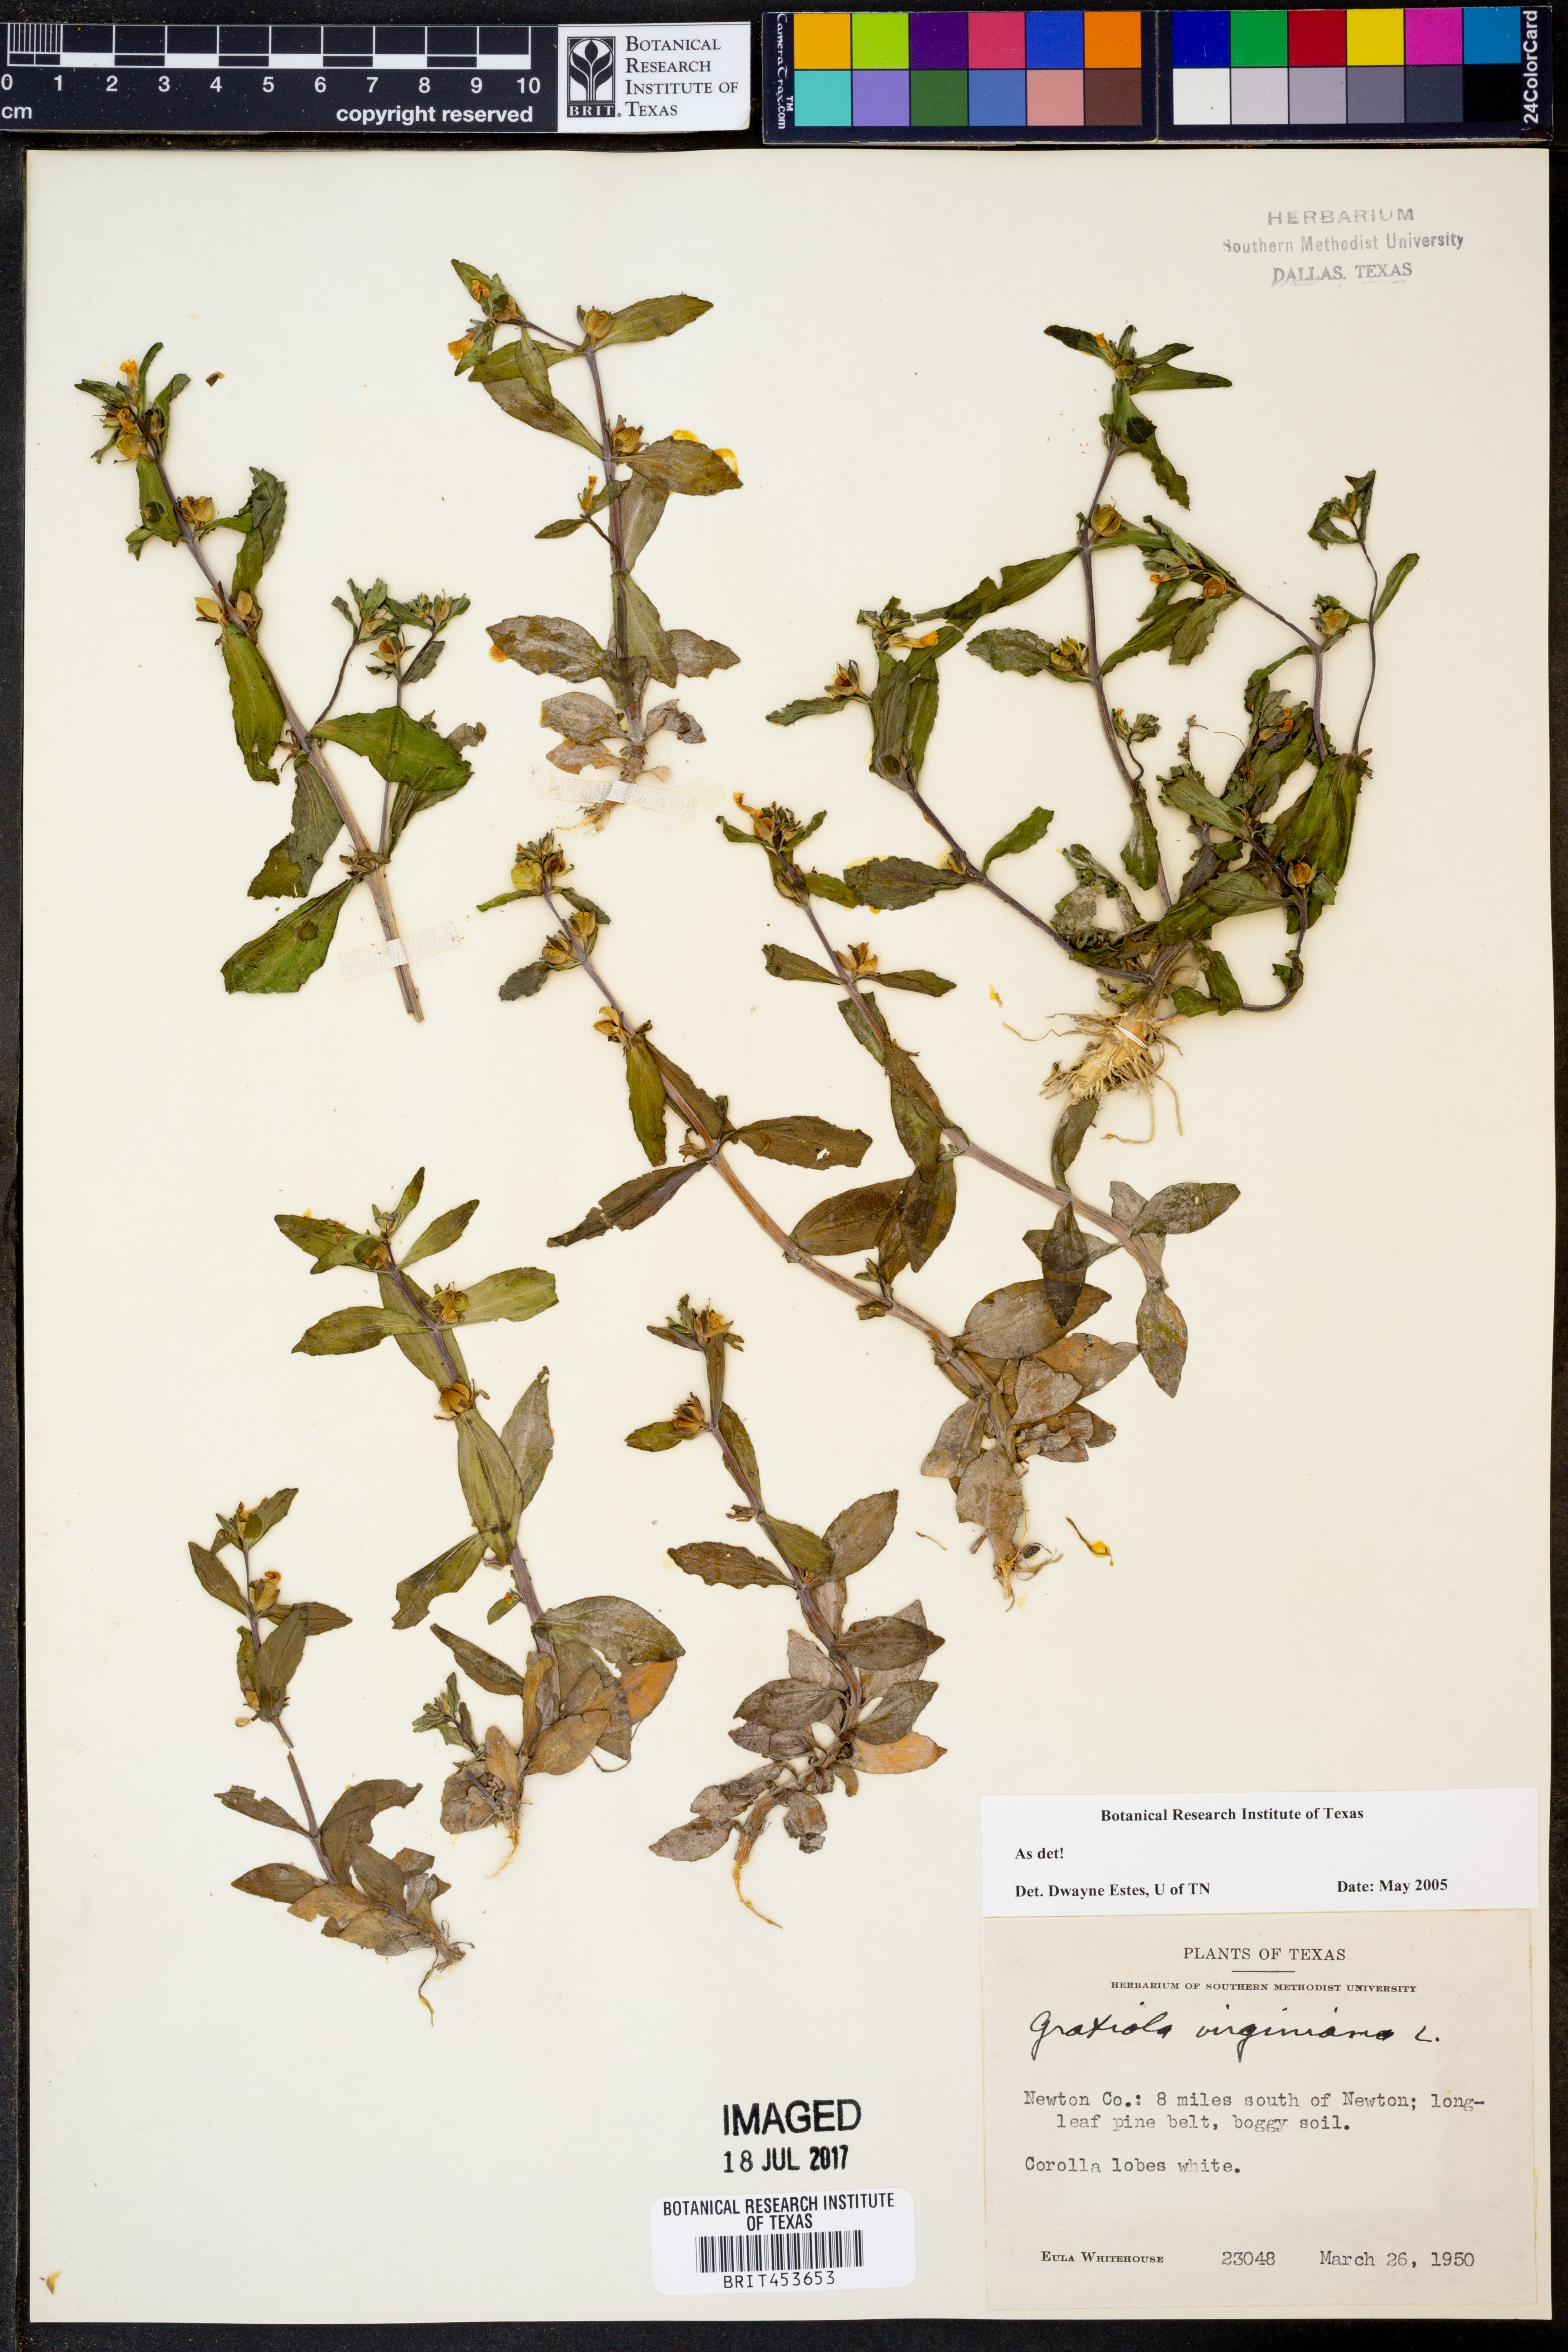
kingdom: Plantae
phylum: Tracheophyta
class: Magnoliopsida
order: Lamiales
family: Plantaginaceae
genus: Gratiola
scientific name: Gratiola virginiana
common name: Roundfruit hedgehyssop
